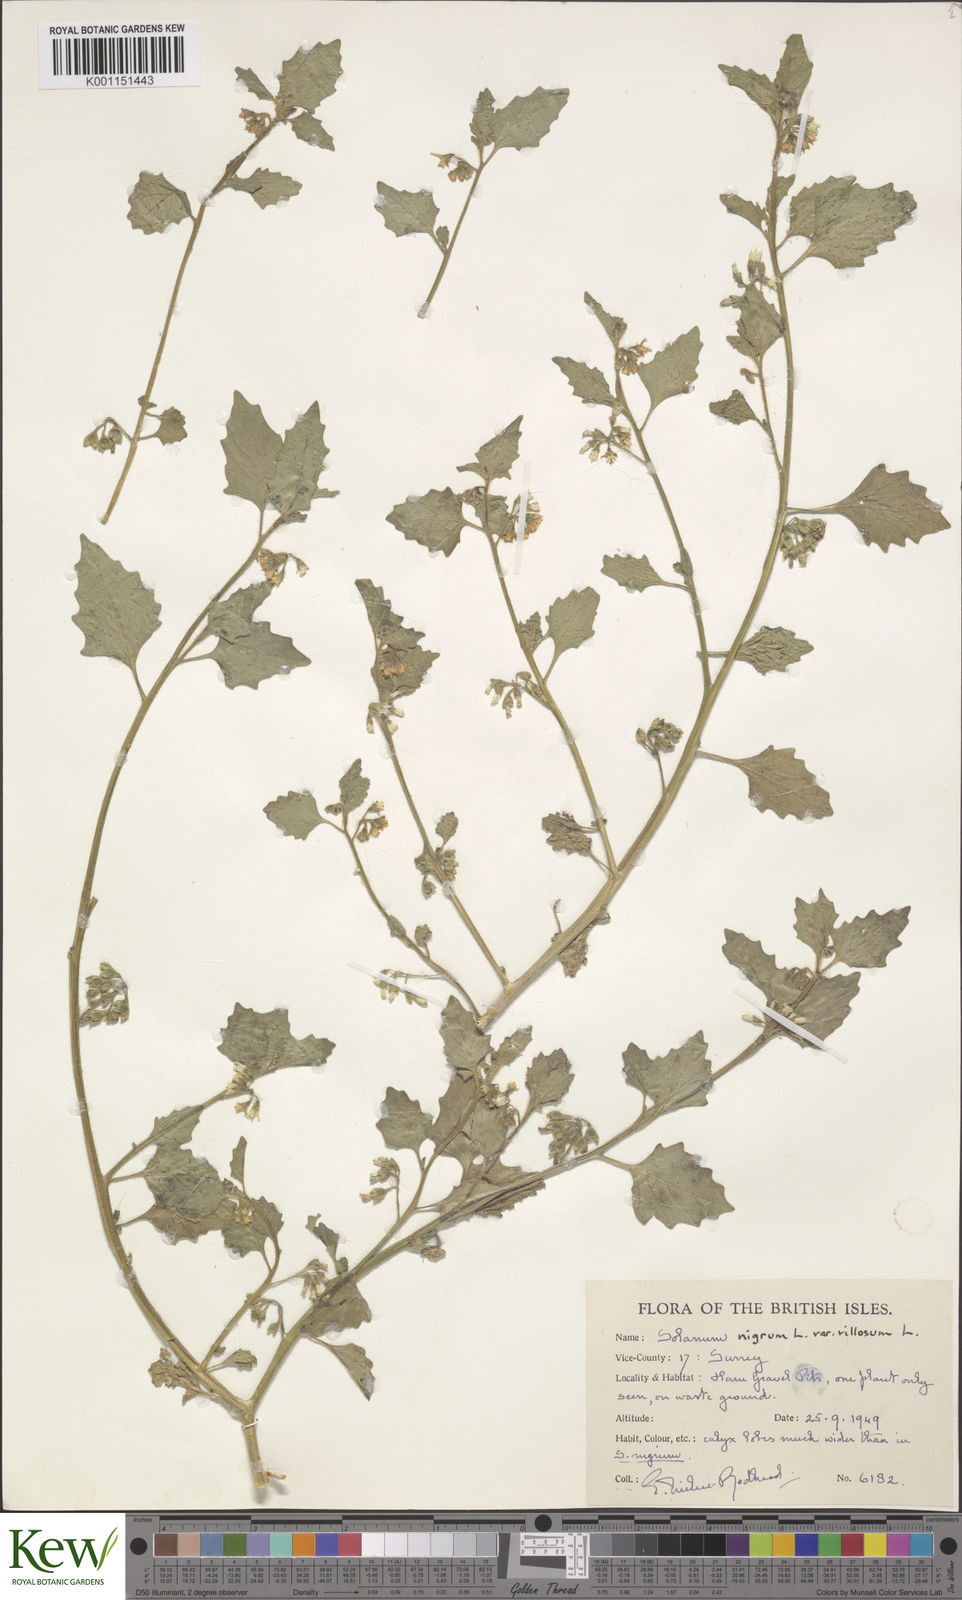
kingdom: Plantae
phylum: Tracheophyta
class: Magnoliopsida
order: Solanales
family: Solanaceae
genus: Solanum
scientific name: Solanum villosum
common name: Red nightshade
